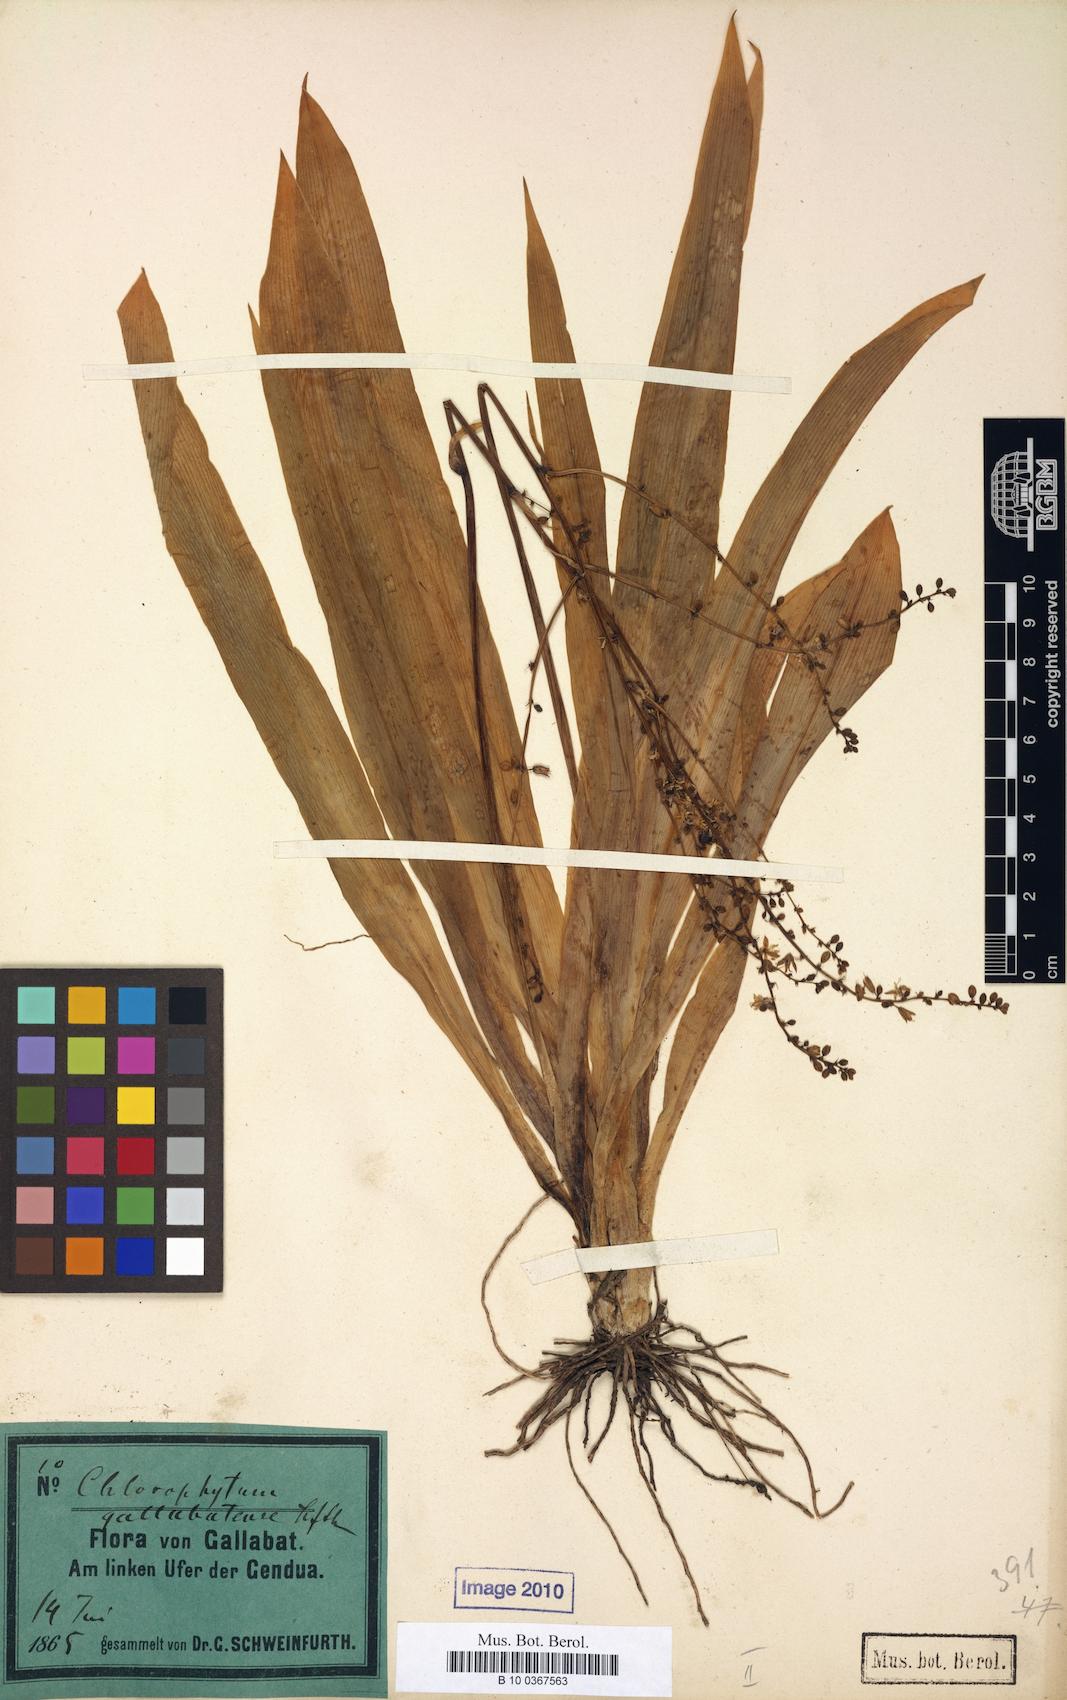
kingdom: Plantae
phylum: Tracheophyta
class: Liliopsida
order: Asparagales
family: Asparagaceae
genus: Chlorophytum
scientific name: Chlorophytum gallabatense
